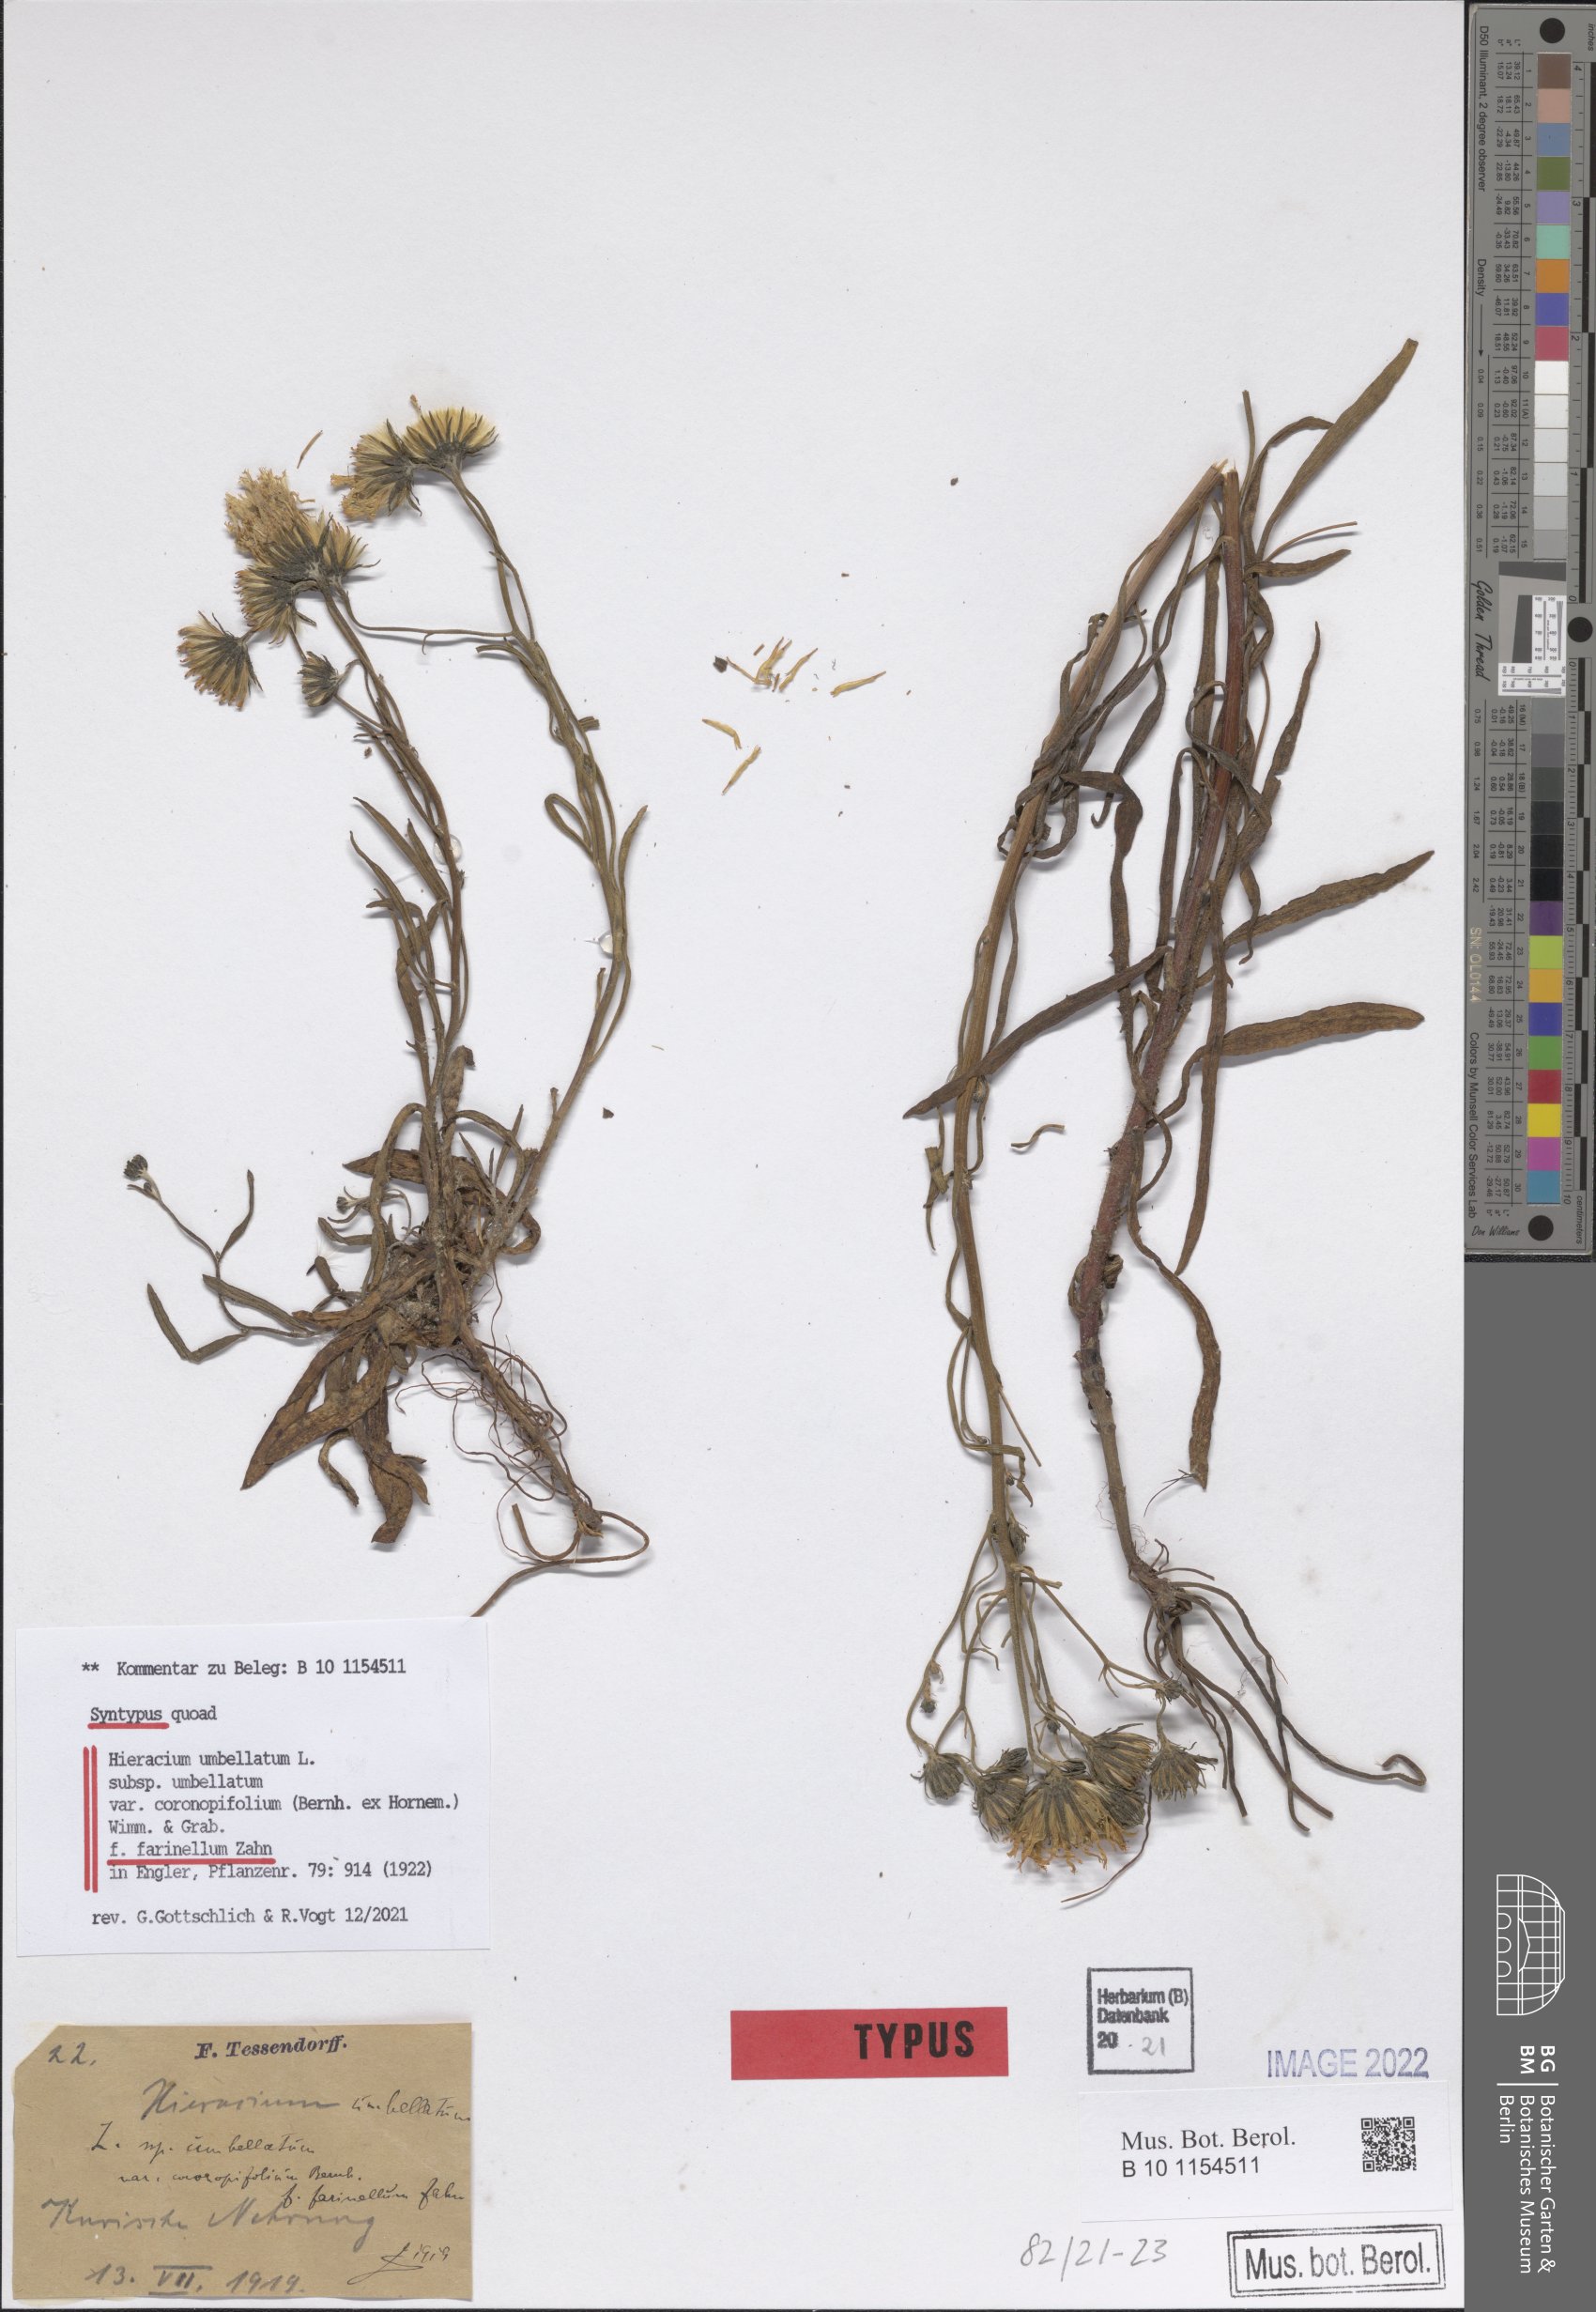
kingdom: Plantae
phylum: Tracheophyta
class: Magnoliopsida
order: Asterales
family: Asteraceae
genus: Hieracium
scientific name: Hieracium umbellatum
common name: Northern hawkweed
